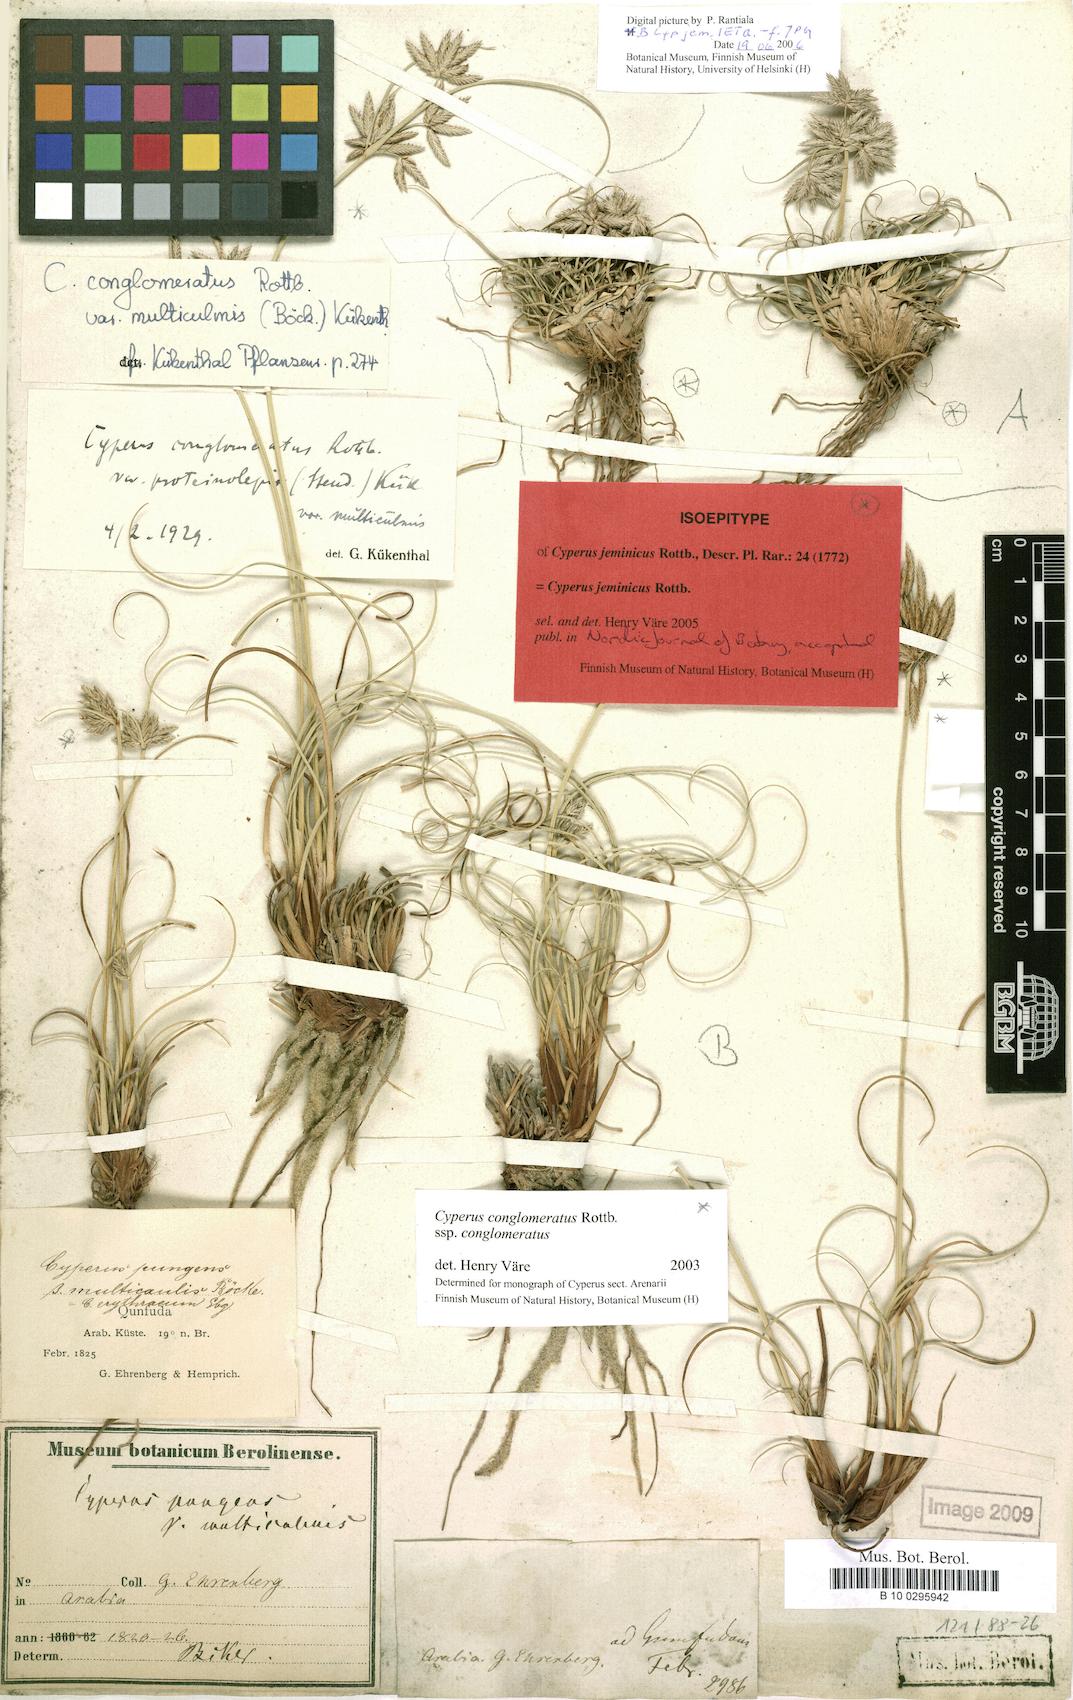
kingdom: Plantae
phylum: Tracheophyta
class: Liliopsida
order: Poales
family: Cyperaceae
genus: Cyperus
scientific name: Cyperus jeminicus
